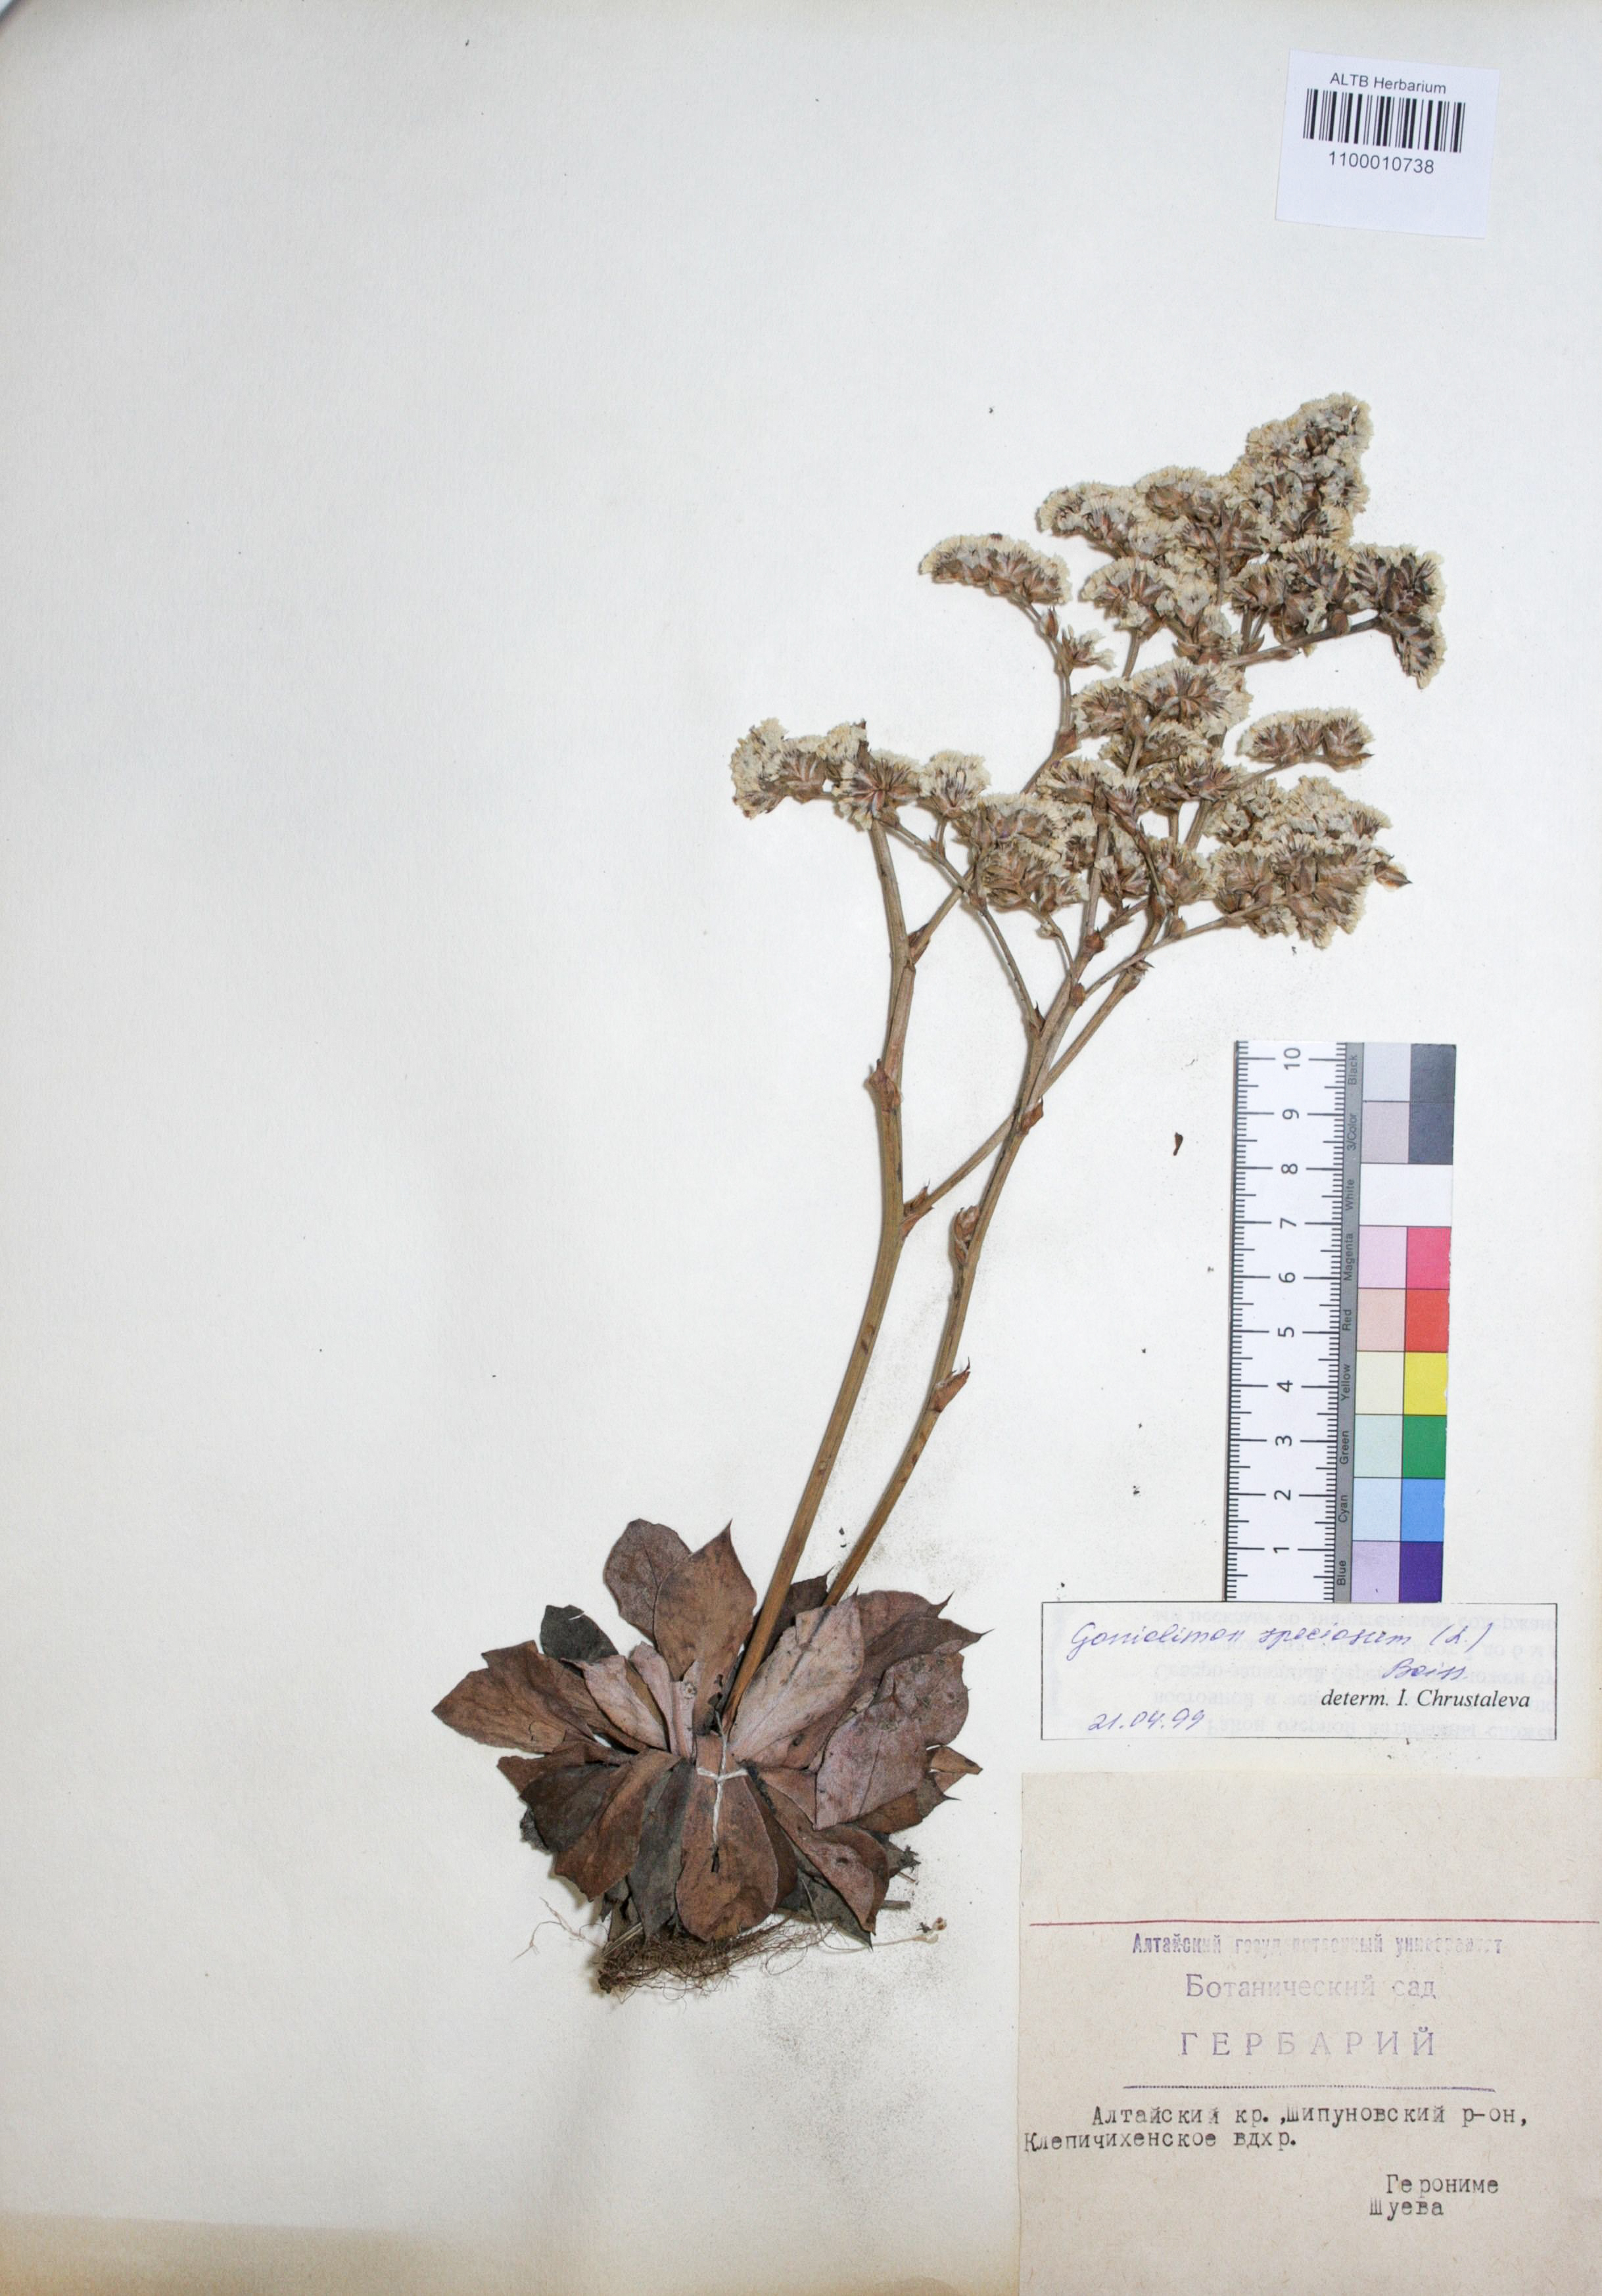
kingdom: Plantae
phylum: Tracheophyta
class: Magnoliopsida
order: Caryophyllales
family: Plumbaginaceae
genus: Goniolimon
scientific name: Goniolimon speciosum
